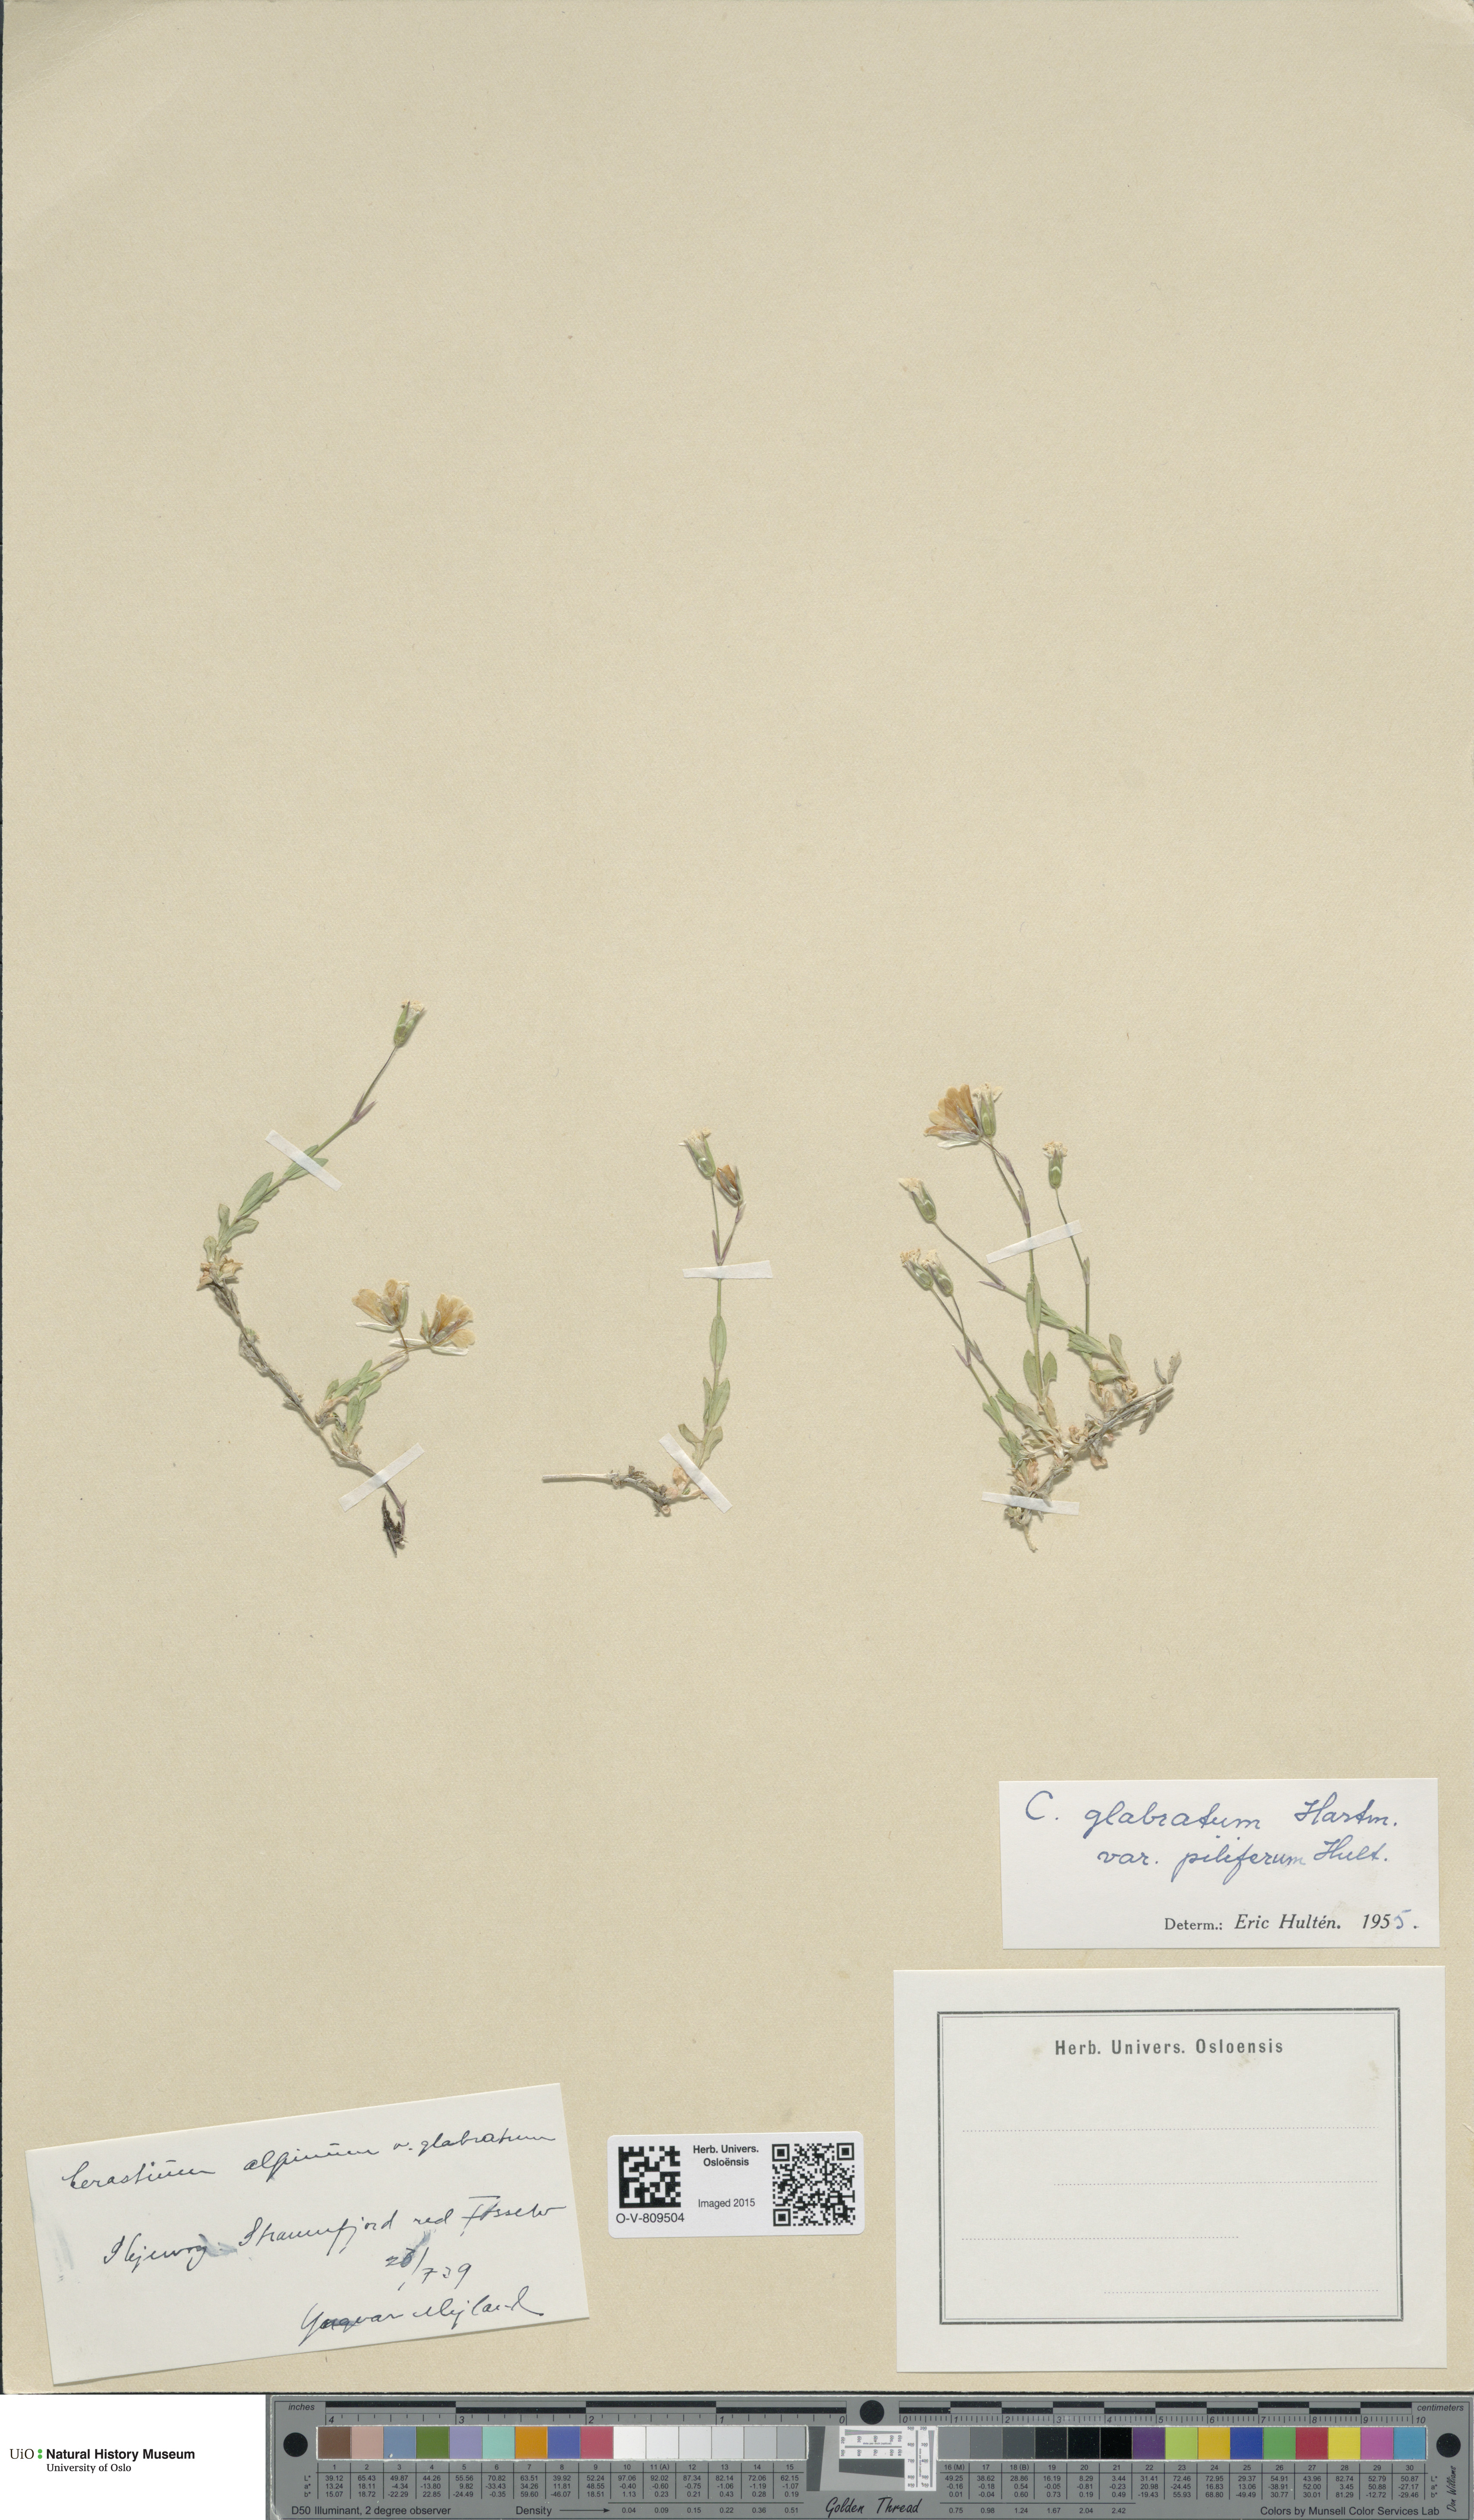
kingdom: Plantae
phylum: Tracheophyta
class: Magnoliopsida
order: Caryophyllales
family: Caryophyllaceae
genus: Cerastium
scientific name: Cerastium alpinum
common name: Alpine mouse-ear
